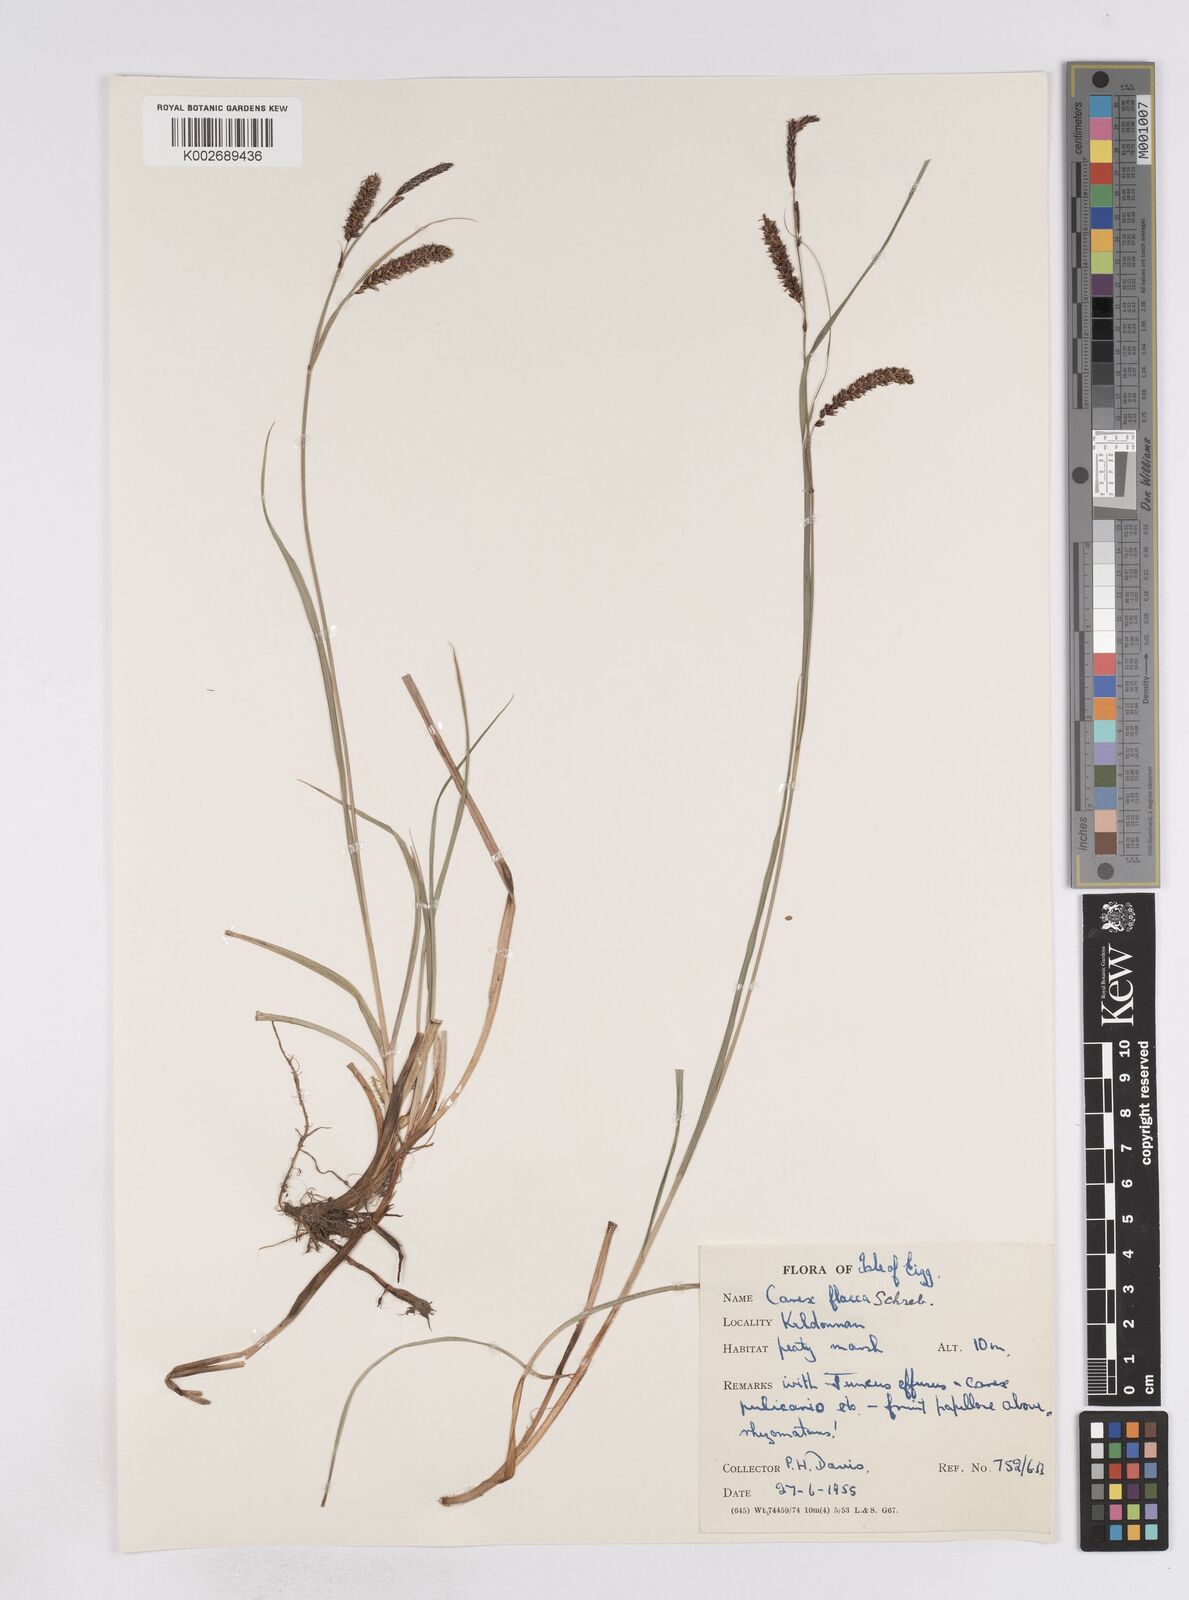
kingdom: Plantae
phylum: Tracheophyta
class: Liliopsida
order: Poales
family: Cyperaceae
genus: Carex
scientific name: Carex flacca
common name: Glaucous sedge
